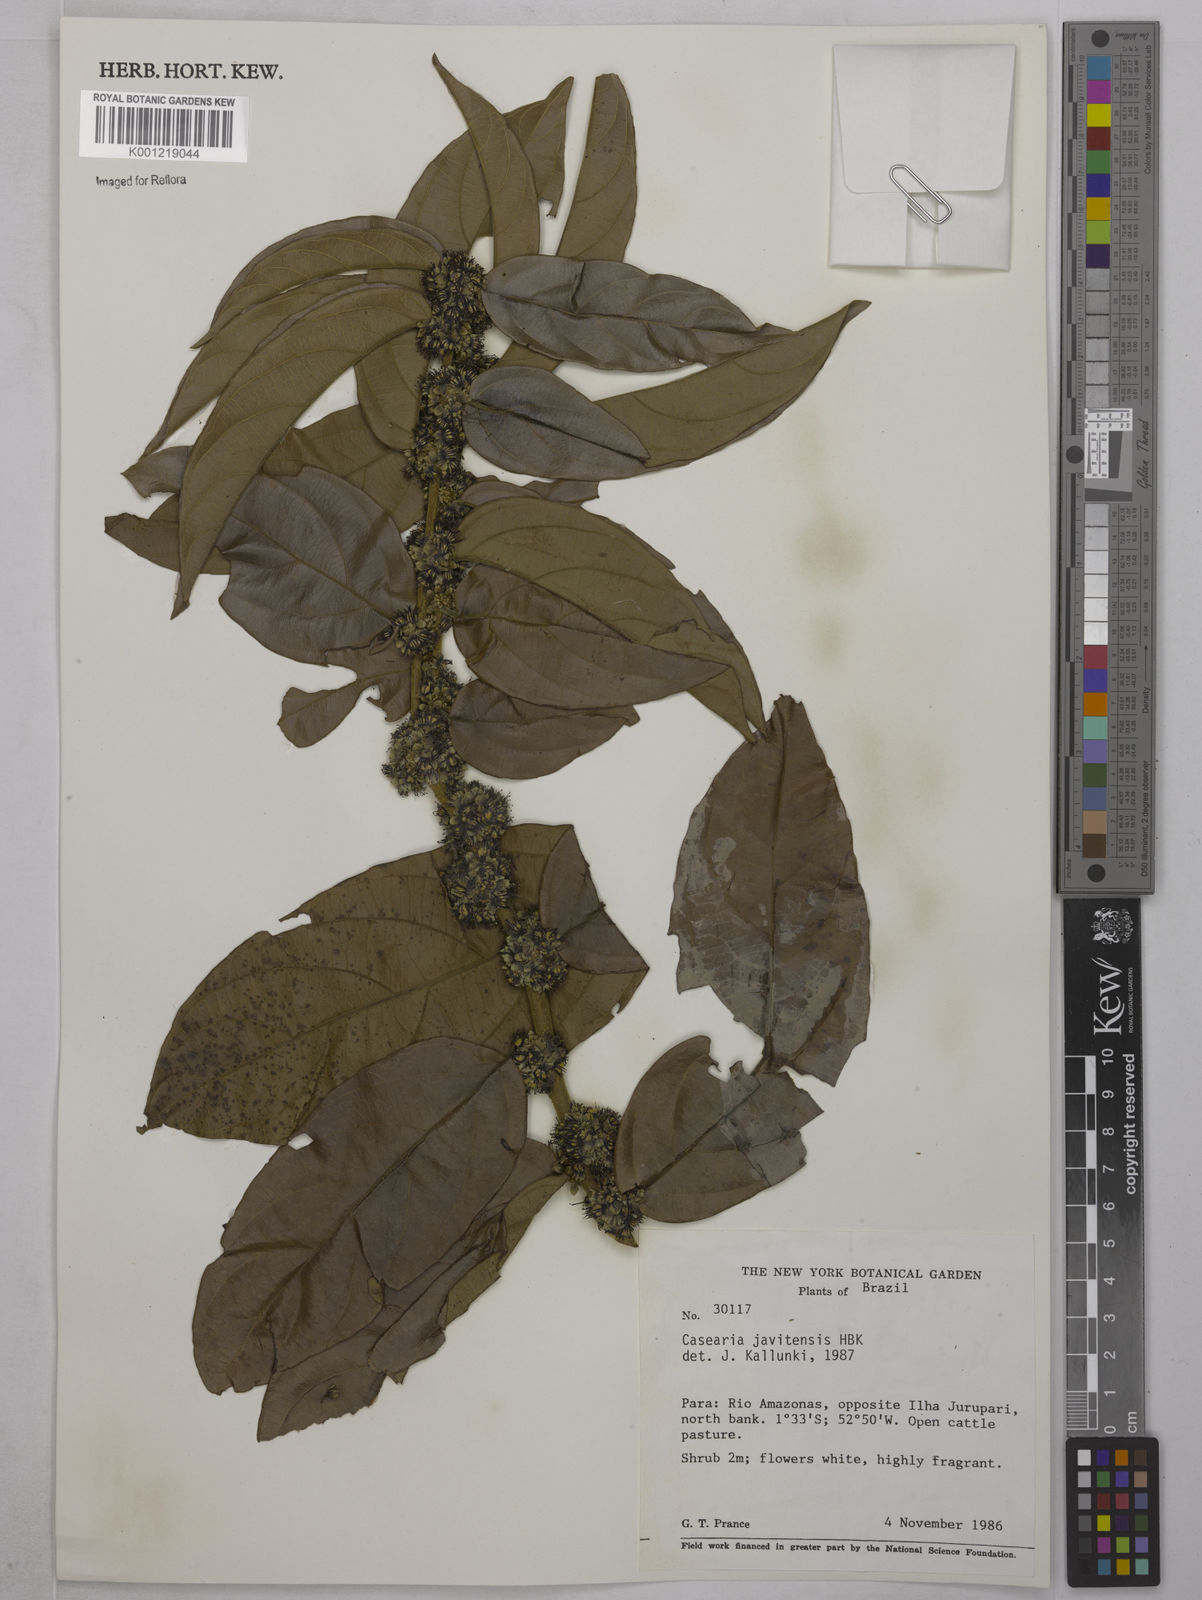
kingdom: Plantae
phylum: Tracheophyta
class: Magnoliopsida
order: Malpighiales
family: Salicaceae
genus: Piparea
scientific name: Piparea multiflora
